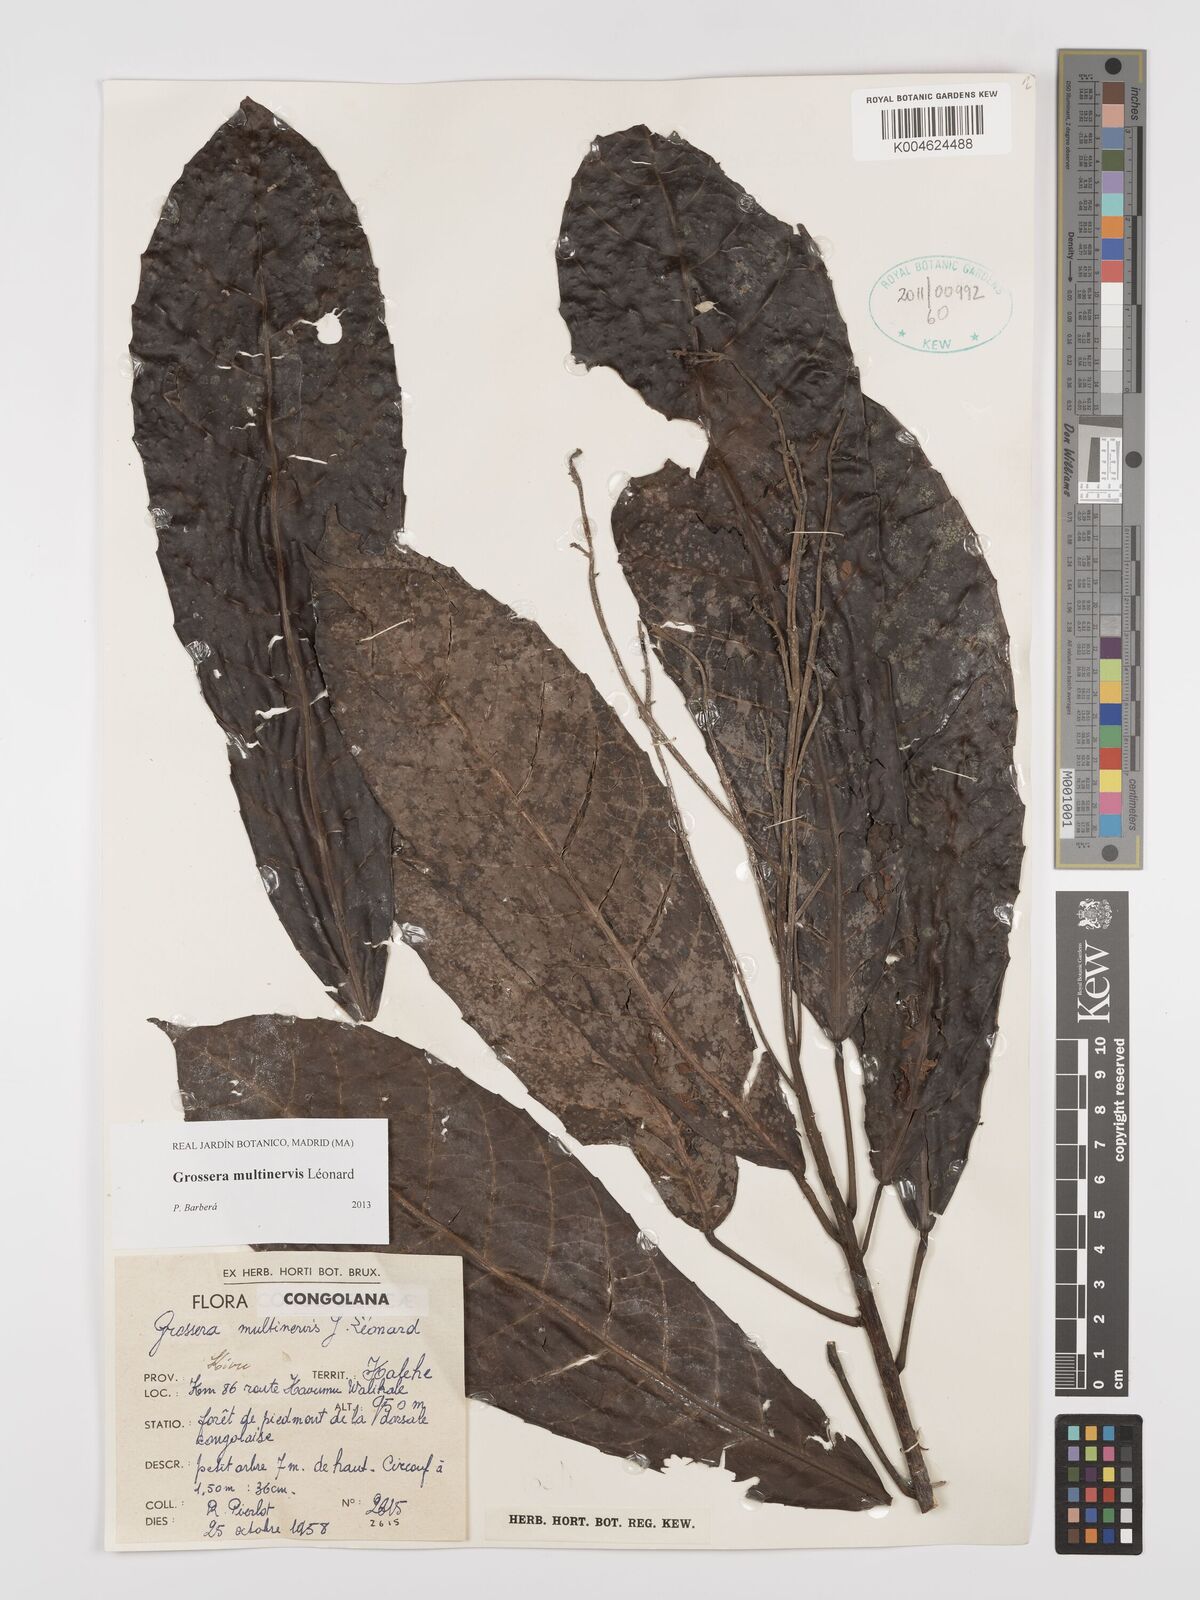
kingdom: Plantae
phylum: Tracheophyta
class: Magnoliopsida
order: Malpighiales
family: Euphorbiaceae
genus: Grossera
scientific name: Grossera multinervis
